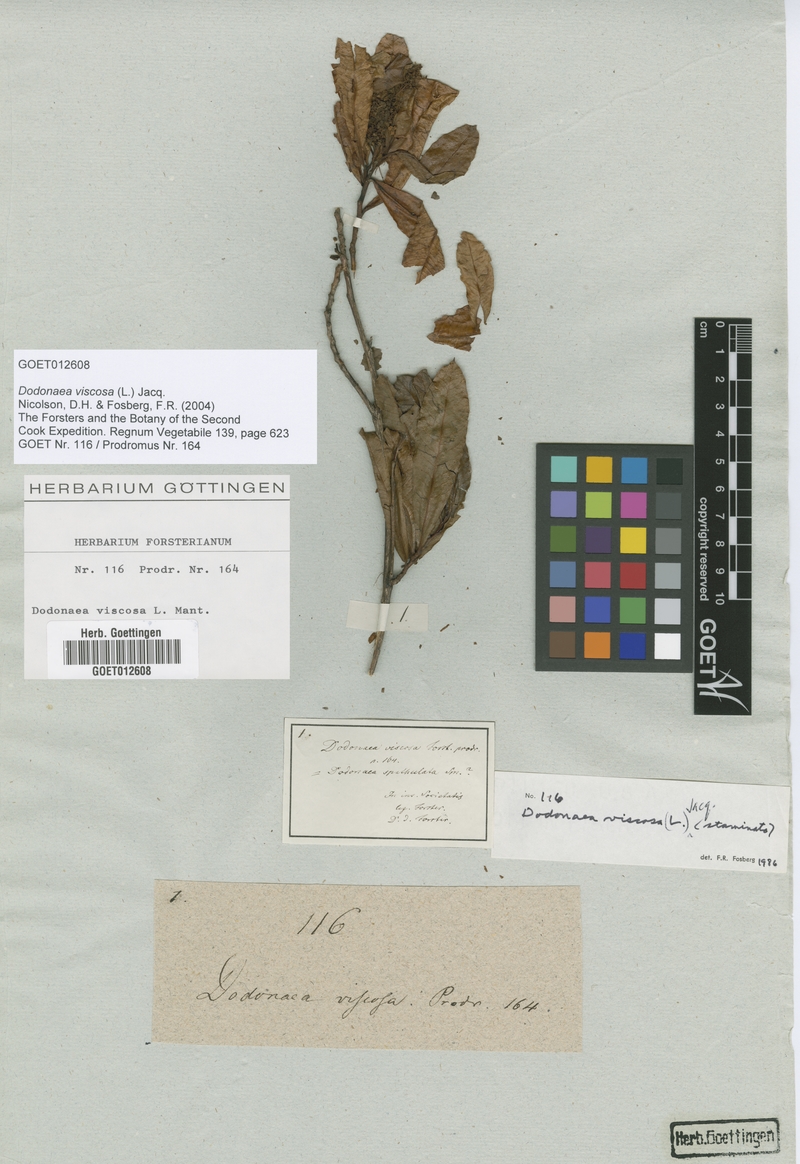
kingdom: Plantae
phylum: Tracheophyta
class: Magnoliopsida
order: Sapindales
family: Sapindaceae
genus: Dodonaea
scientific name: Dodonaea viscosa
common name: Hopbush
